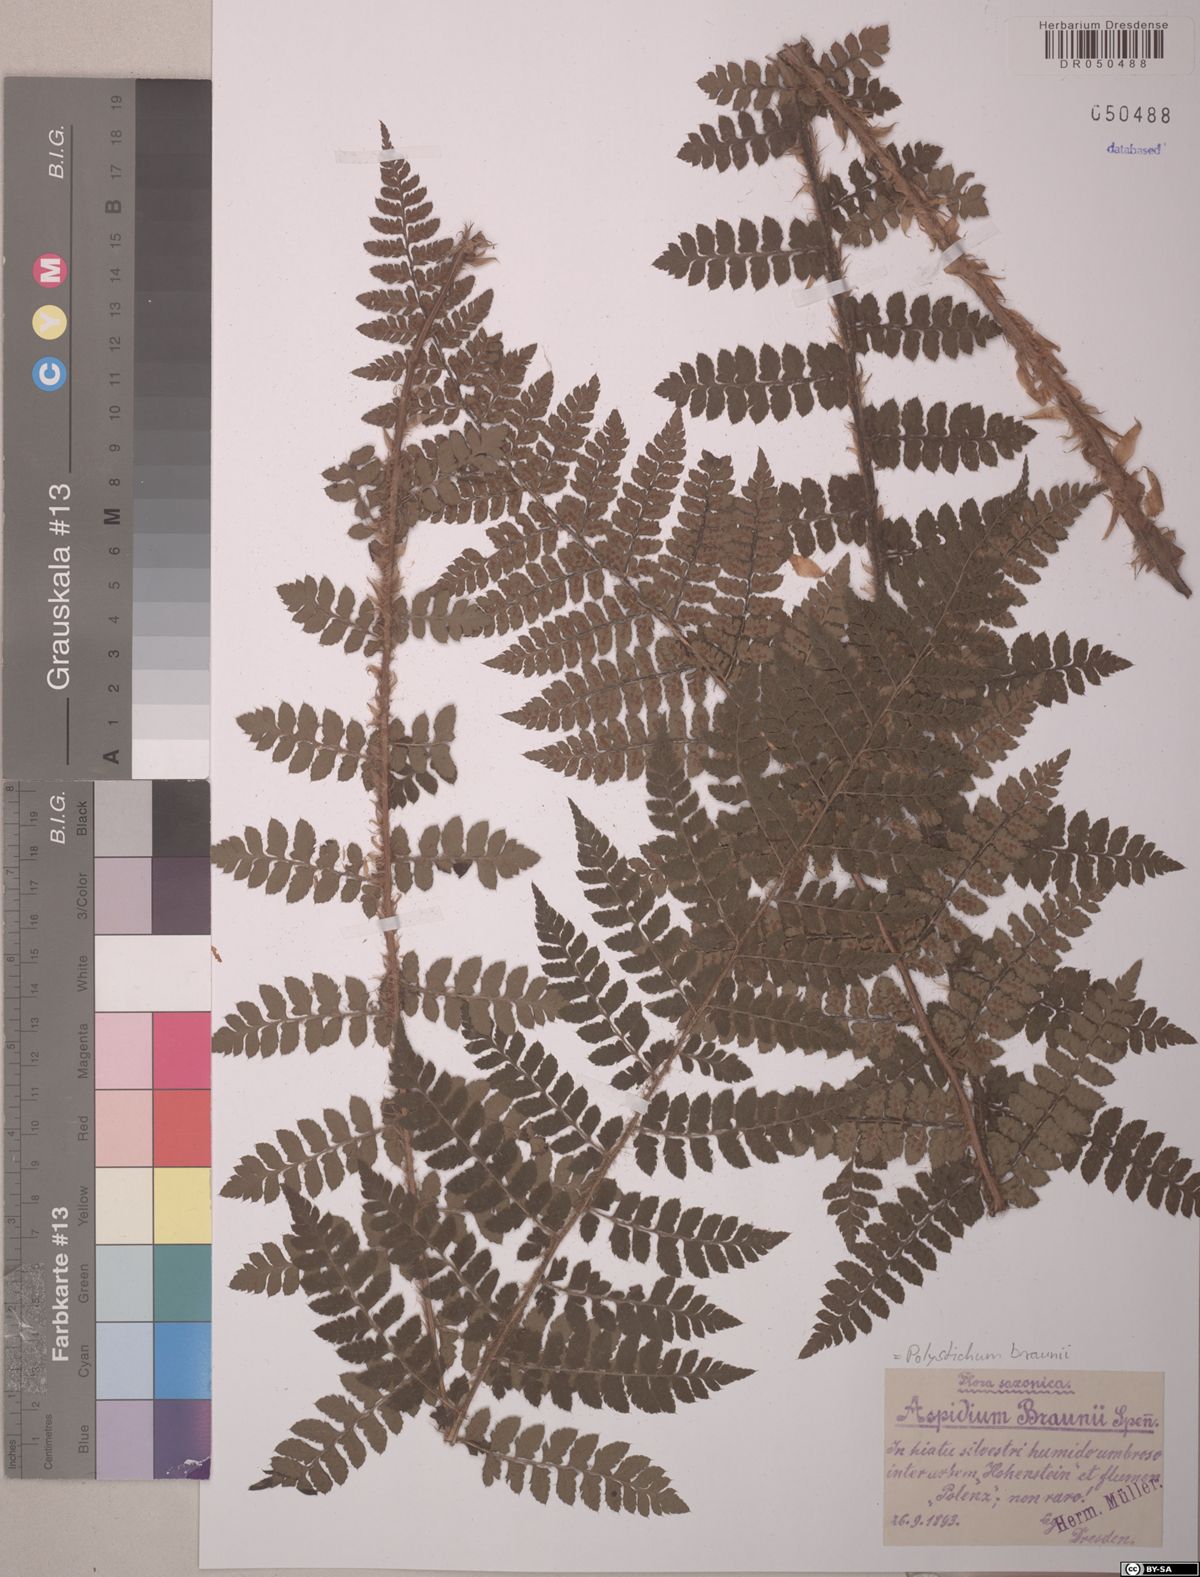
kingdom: Plantae
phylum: Tracheophyta
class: Polypodiopsida
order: Polypodiales
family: Dryopteridaceae
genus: Polystichum
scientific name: Polystichum braunii
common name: Braun's holly fern
